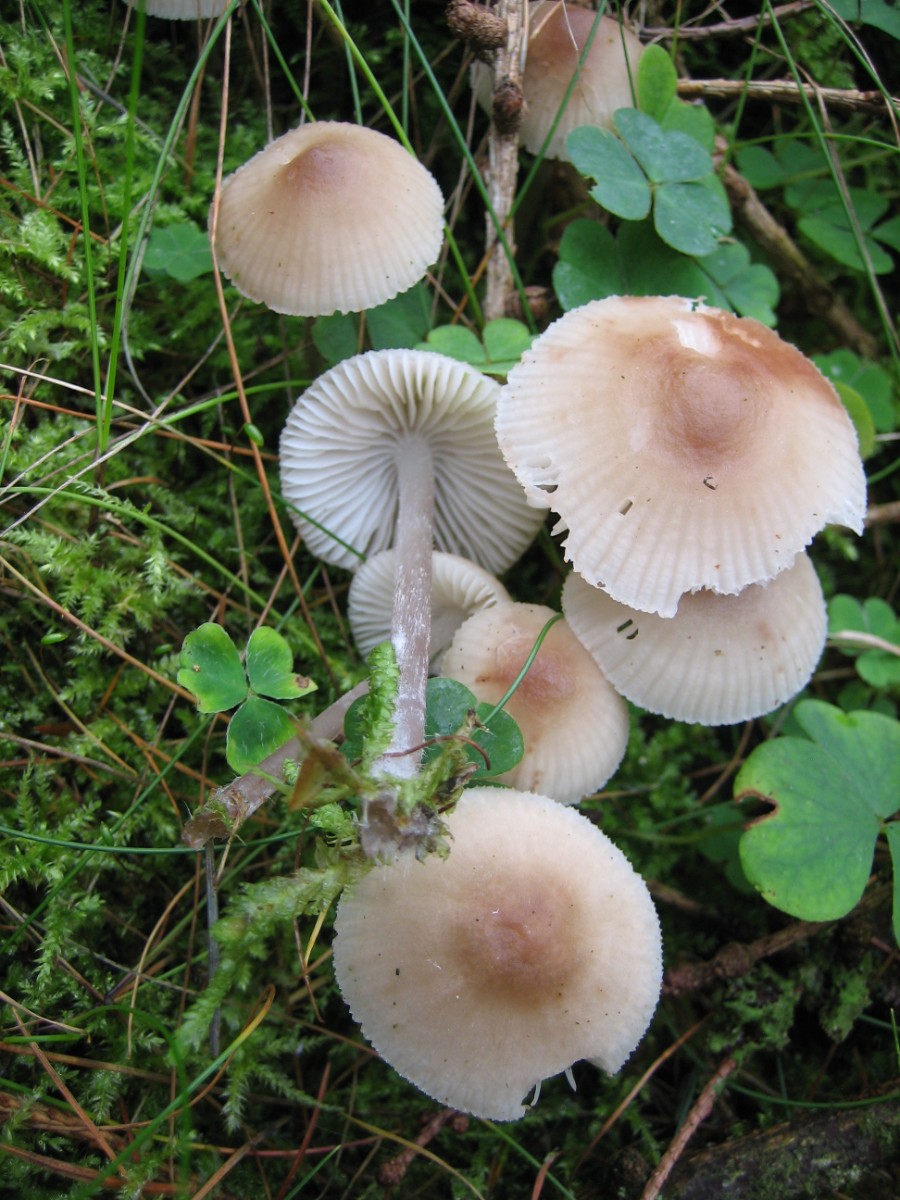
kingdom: Fungi
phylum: Basidiomycota
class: Agaricomycetes
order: Agaricales
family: Mycenaceae
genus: Mycena
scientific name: Mycena zephirus
